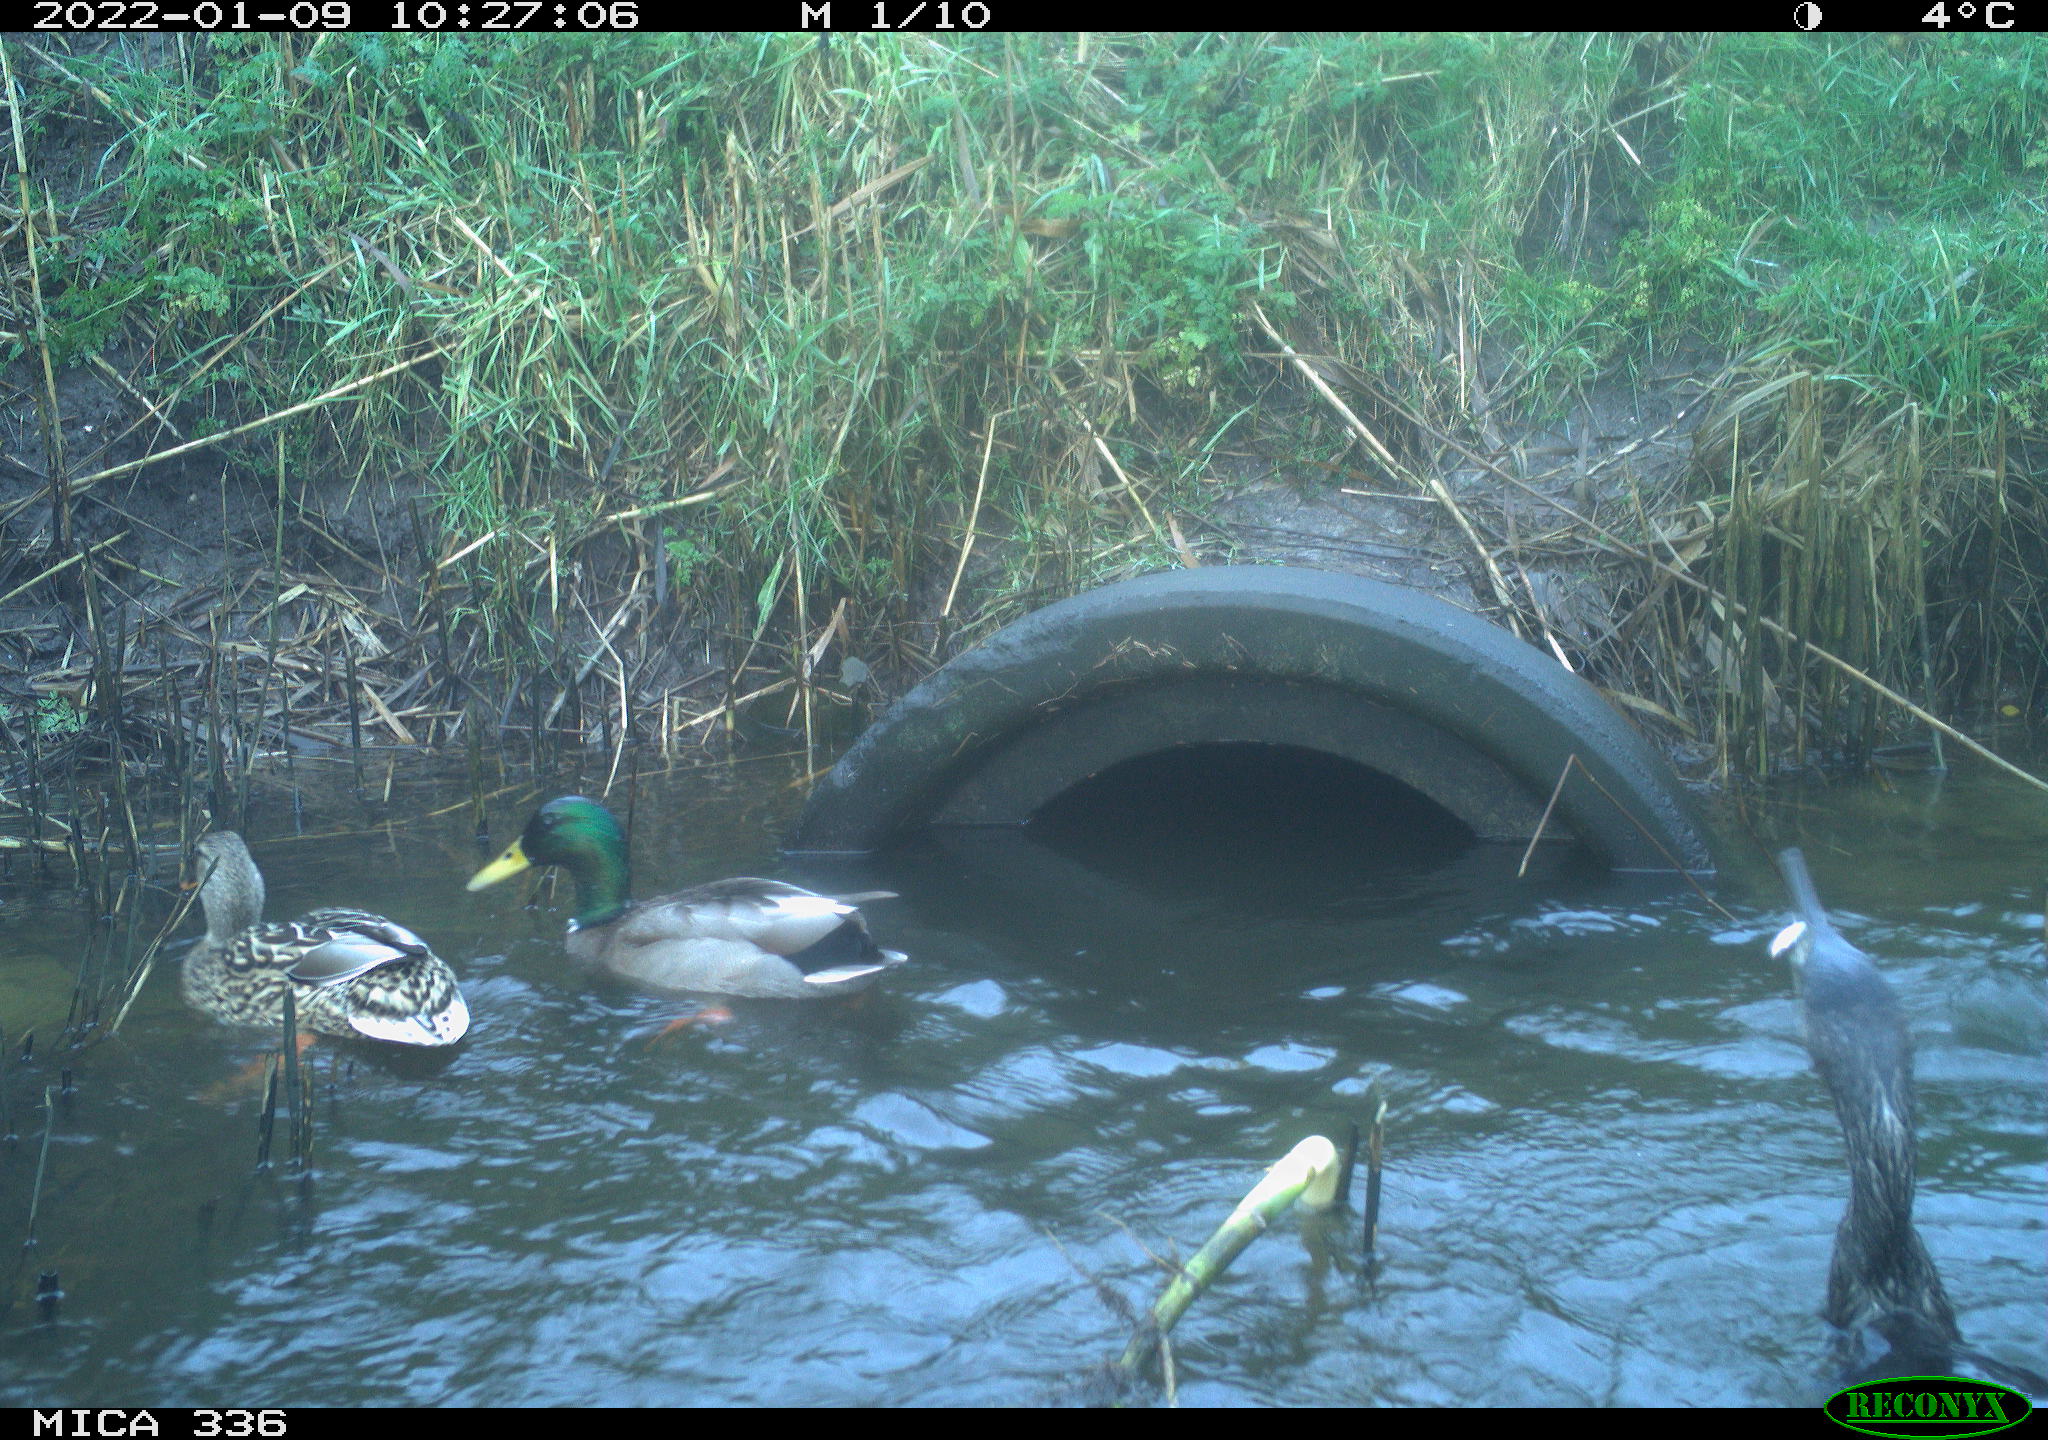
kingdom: Animalia
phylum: Chordata
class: Aves
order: Anseriformes
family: Anatidae
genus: Anas
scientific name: Anas platyrhynchos
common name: Mallard
